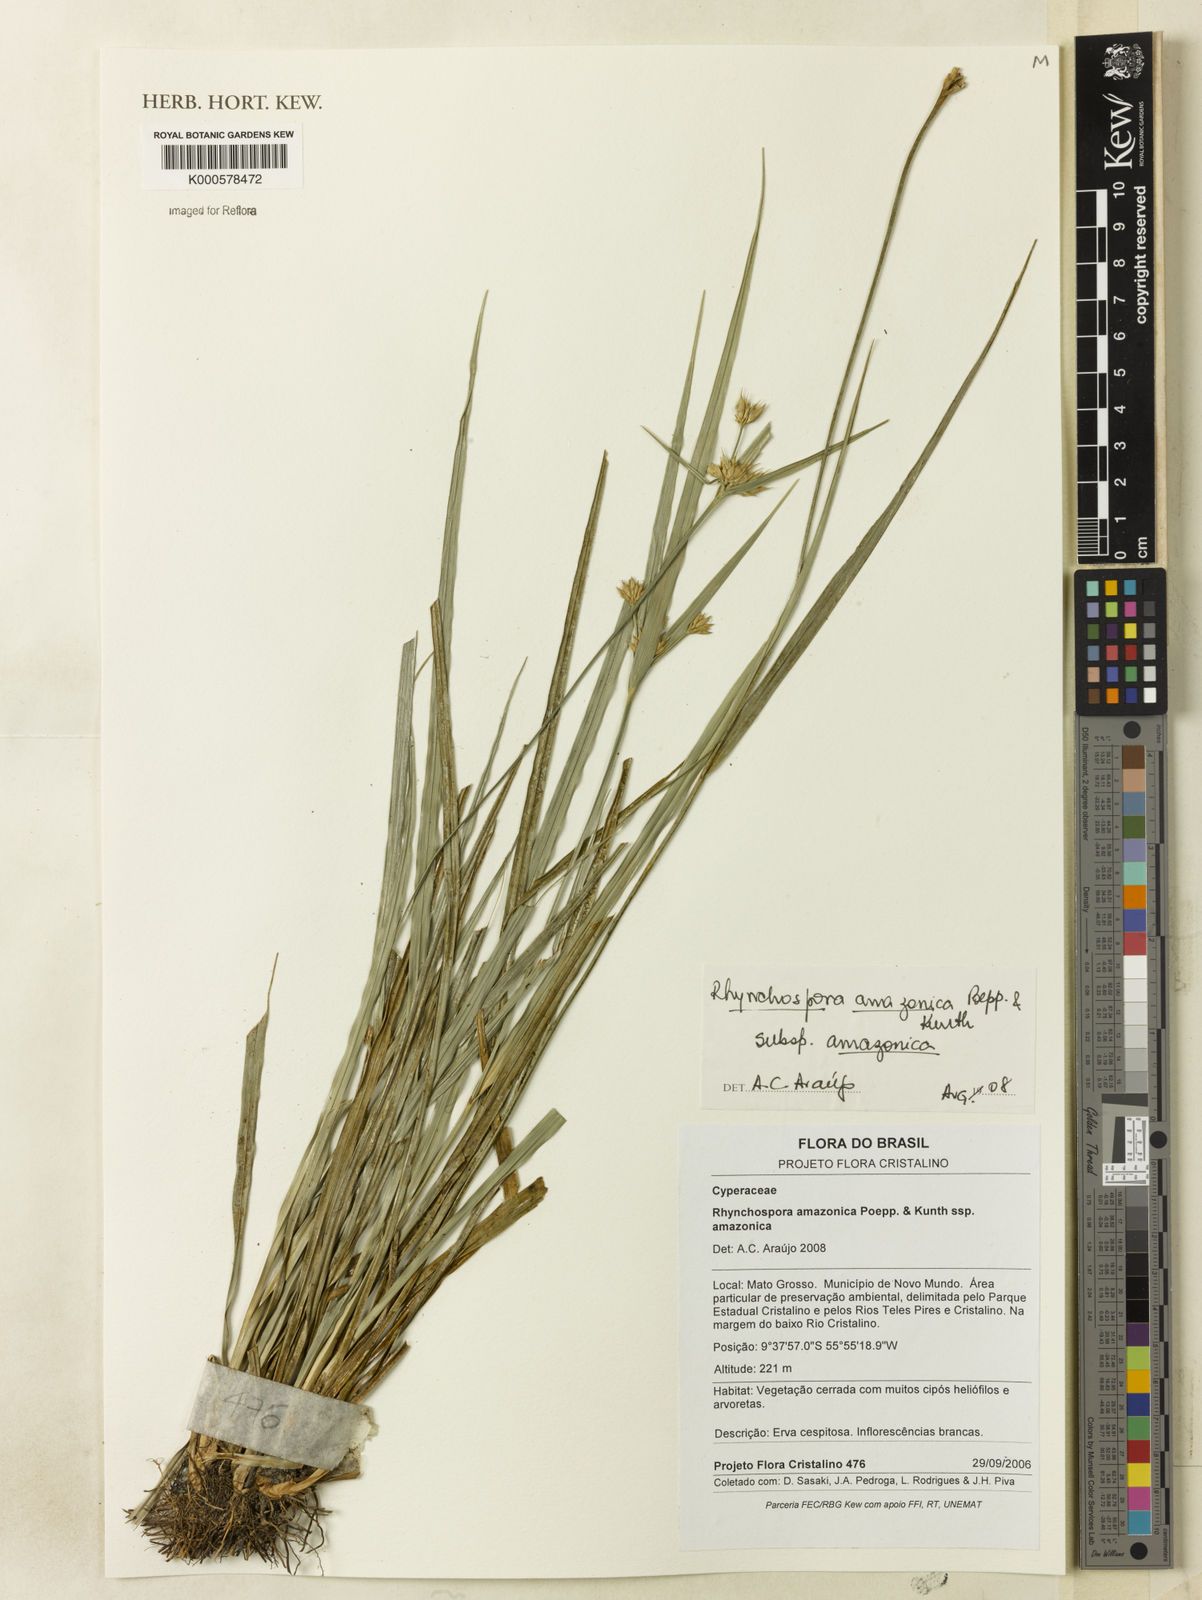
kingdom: Plantae
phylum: Tracheophyta
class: Liliopsida
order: Poales
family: Cyperaceae
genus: Rhynchospora
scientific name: Rhynchospora amazonica
